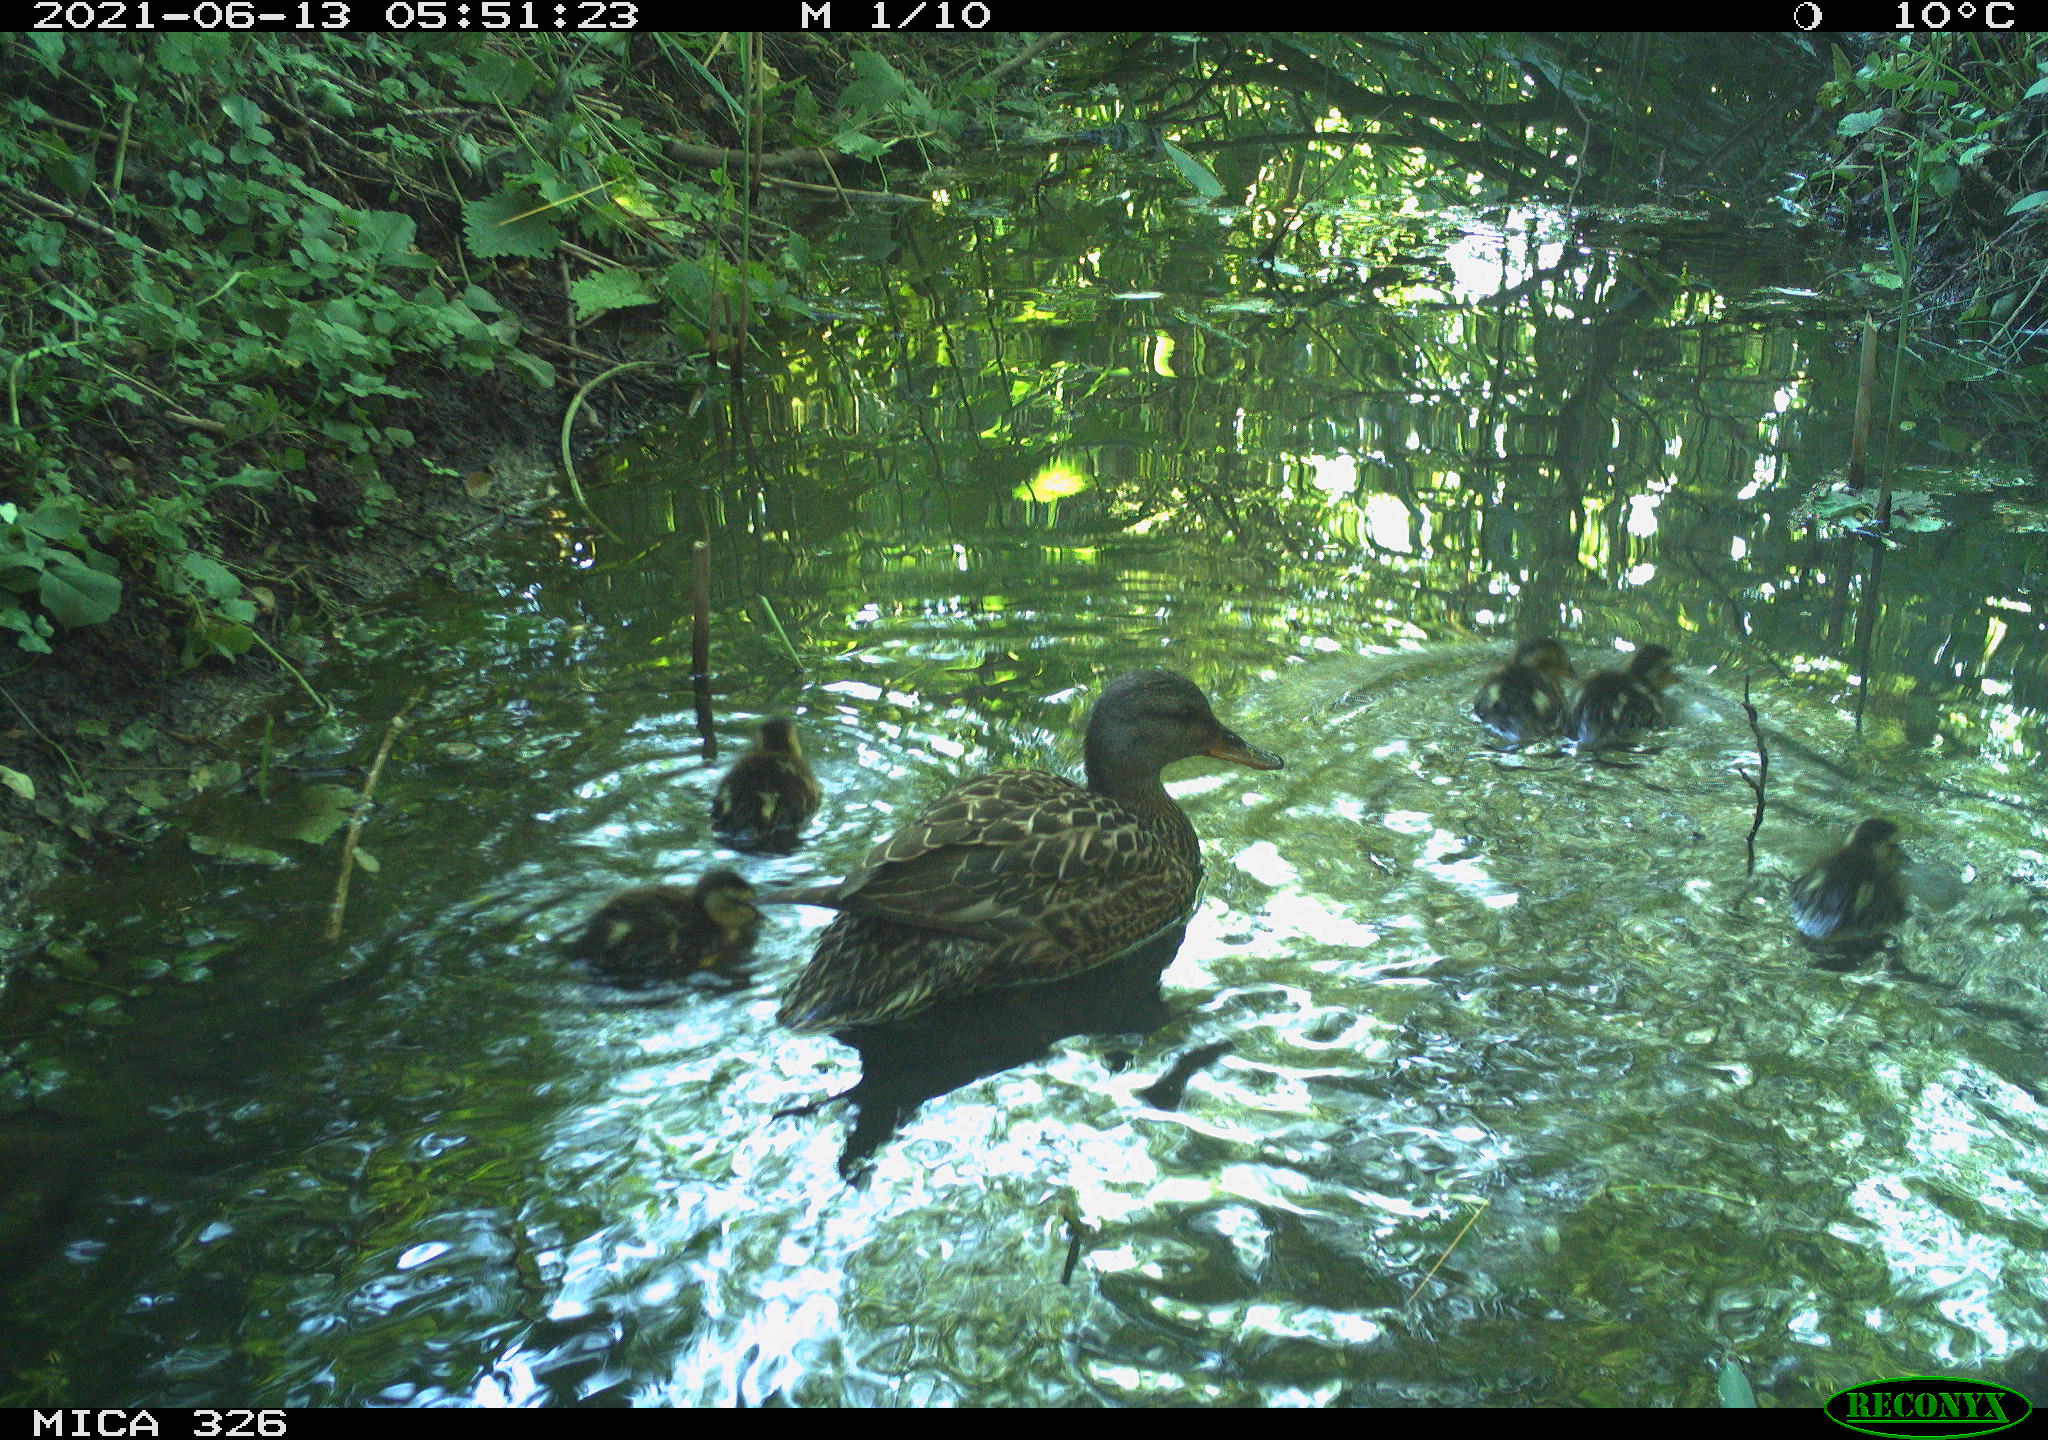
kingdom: Animalia
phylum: Chordata
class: Aves
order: Anseriformes
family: Anatidae
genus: Anas
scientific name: Anas platyrhynchos
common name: Mallard
